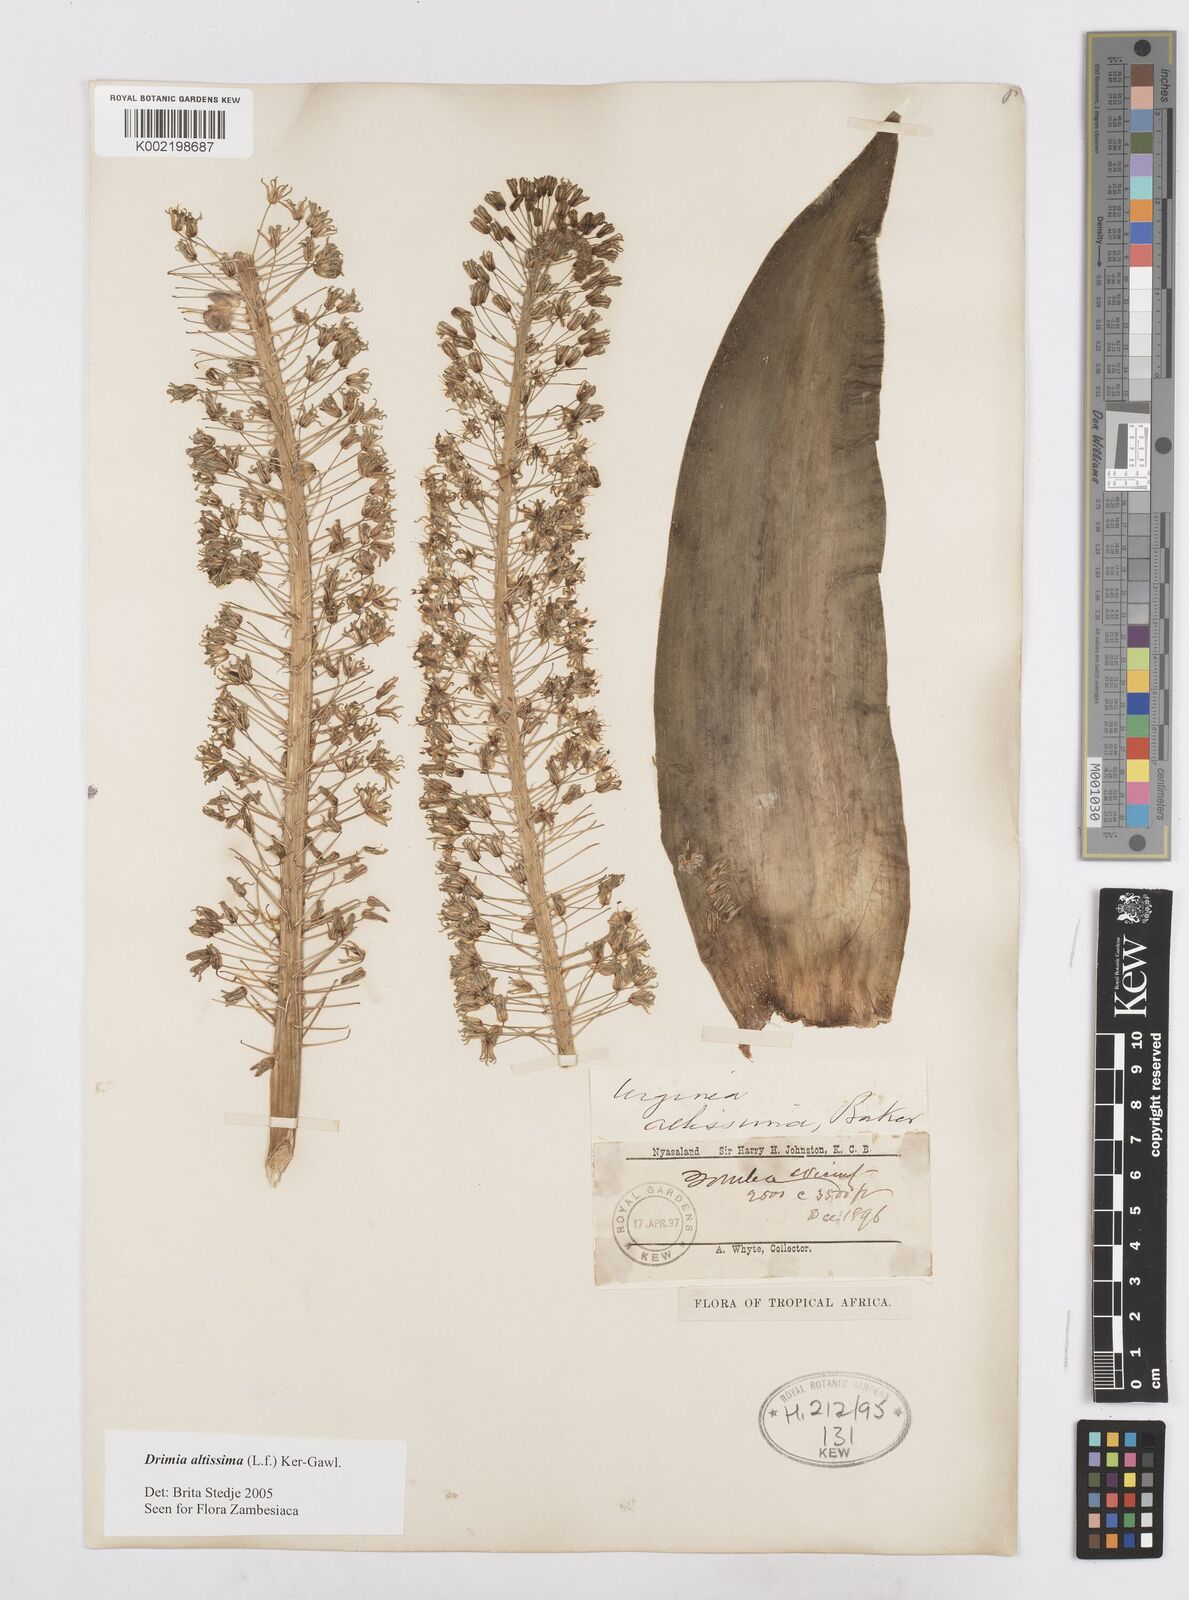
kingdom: Plantae
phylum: Tracheophyta
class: Liliopsida
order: Asparagales
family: Asparagaceae
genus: Drimia
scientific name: Drimia altissima
